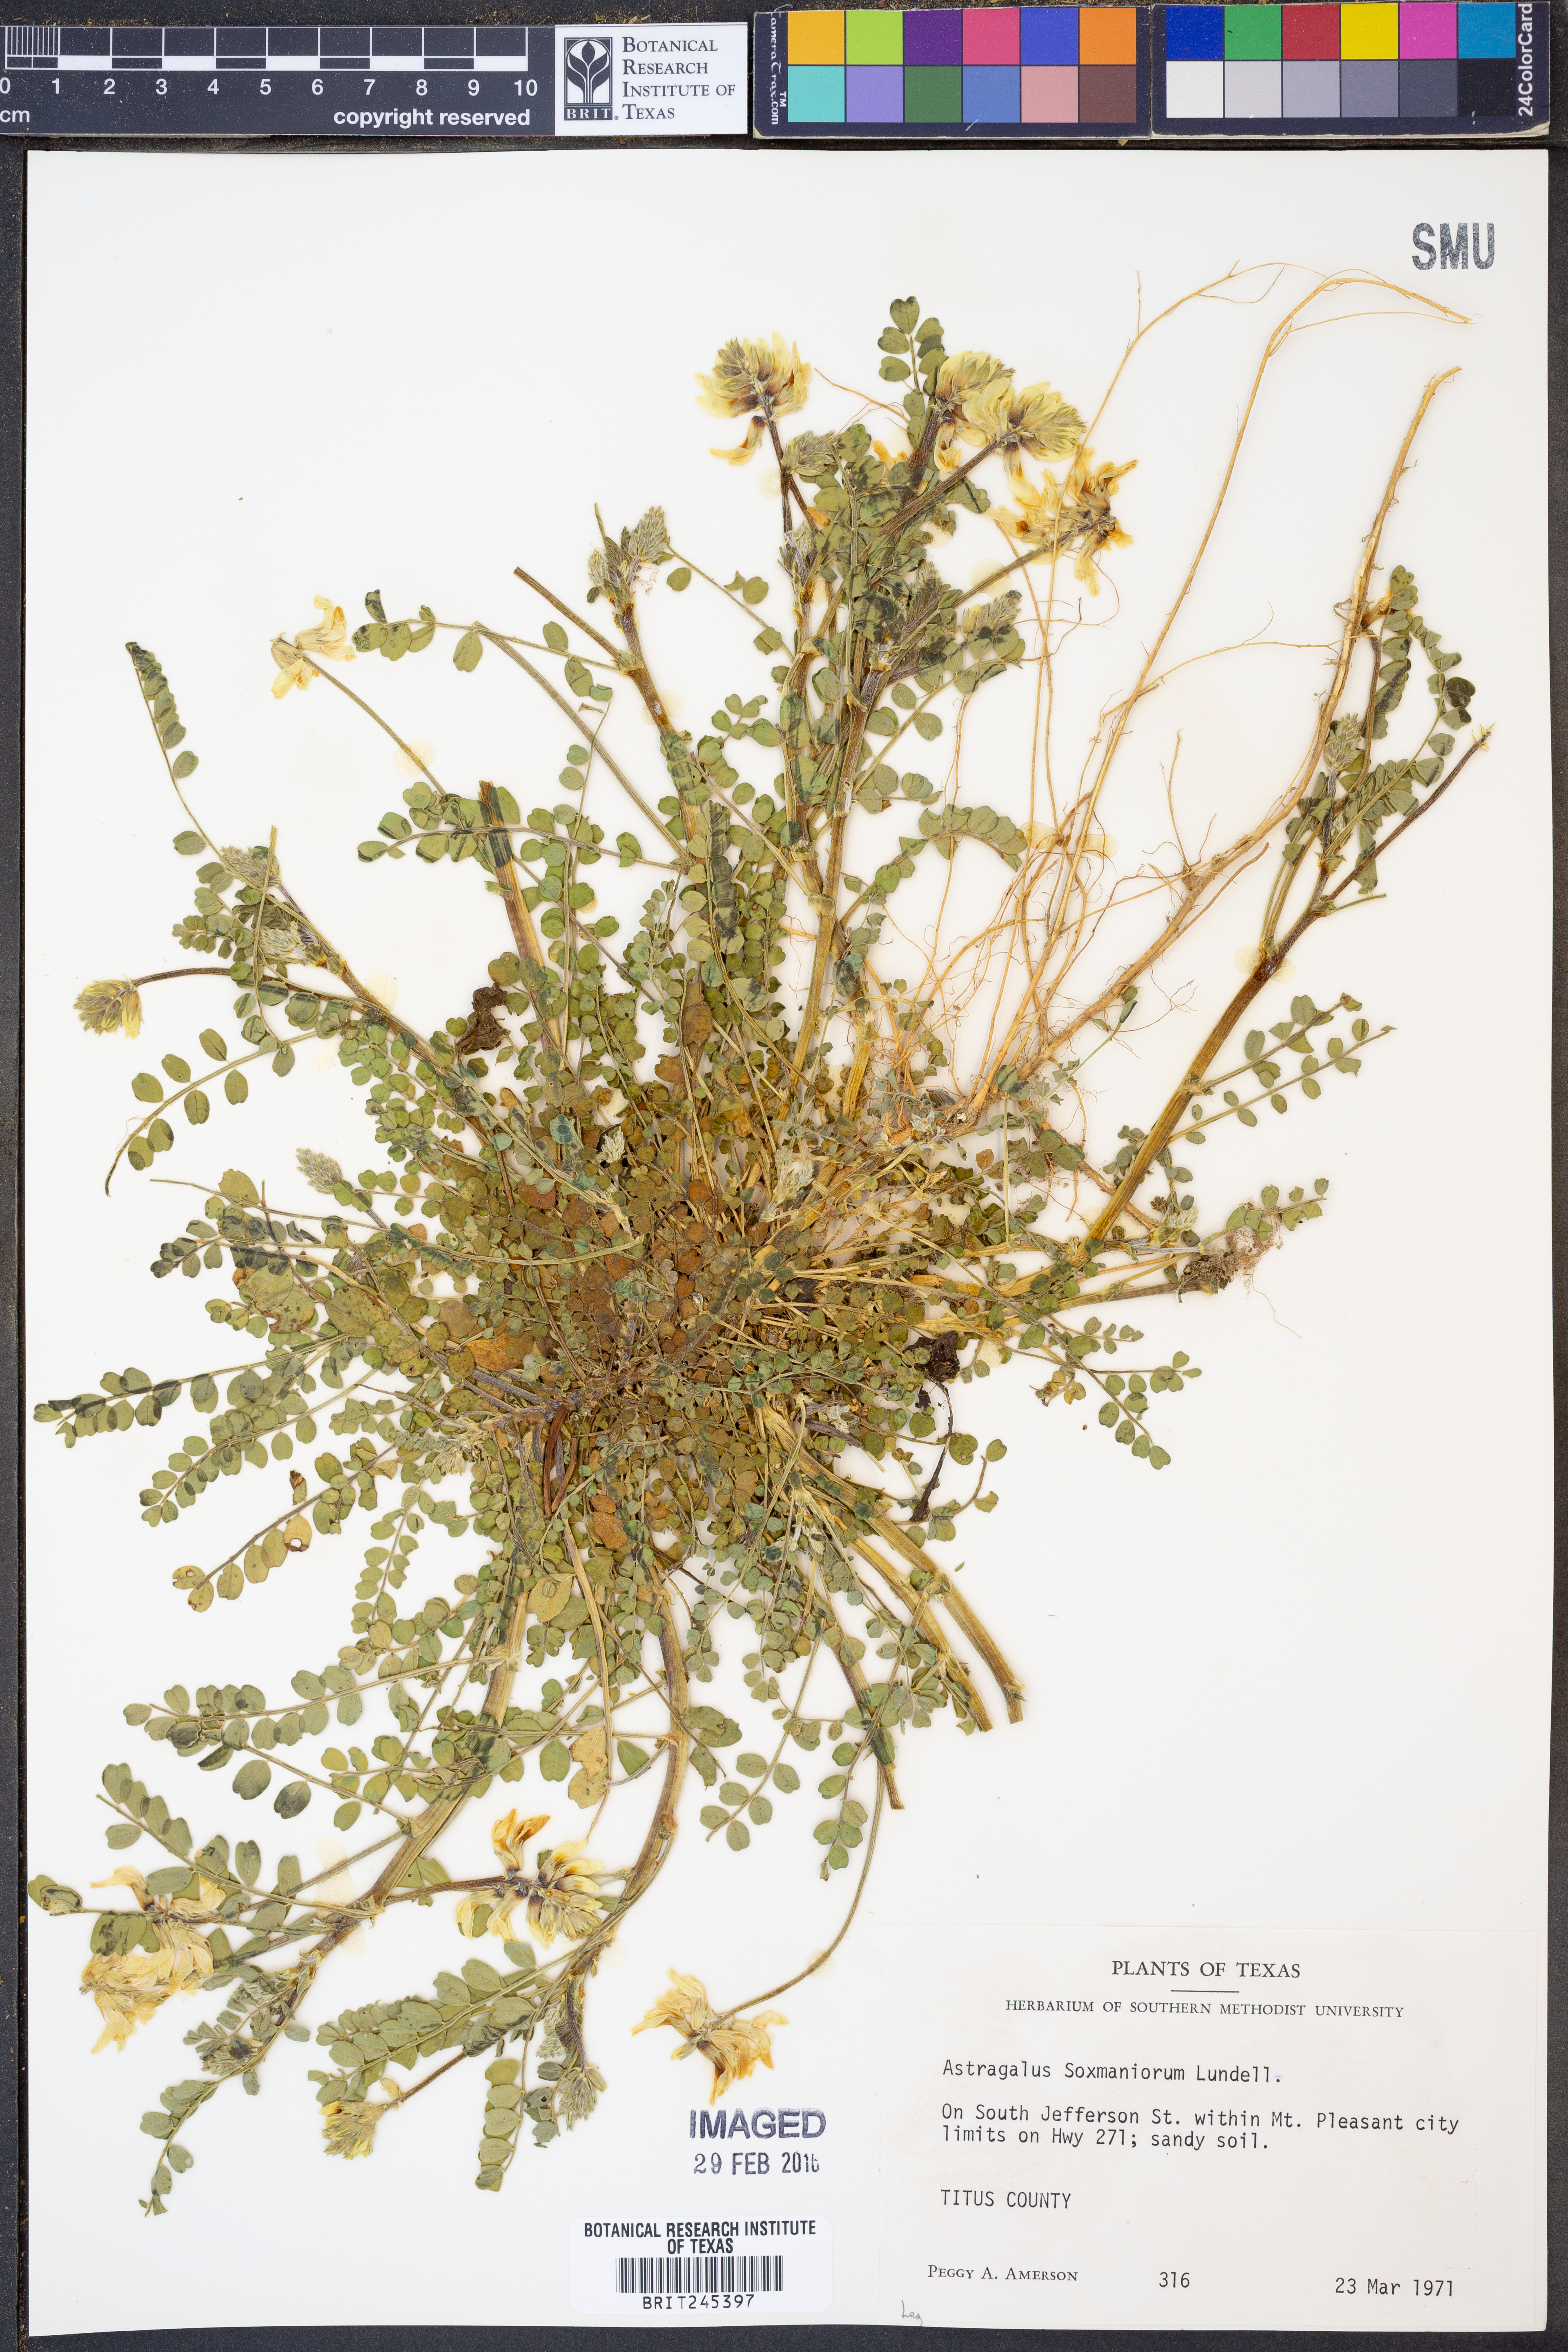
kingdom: Plantae
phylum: Tracheophyta
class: Magnoliopsida
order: Fabales
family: Fabaceae
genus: Astragalus
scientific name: Astragalus soxmaniorum
